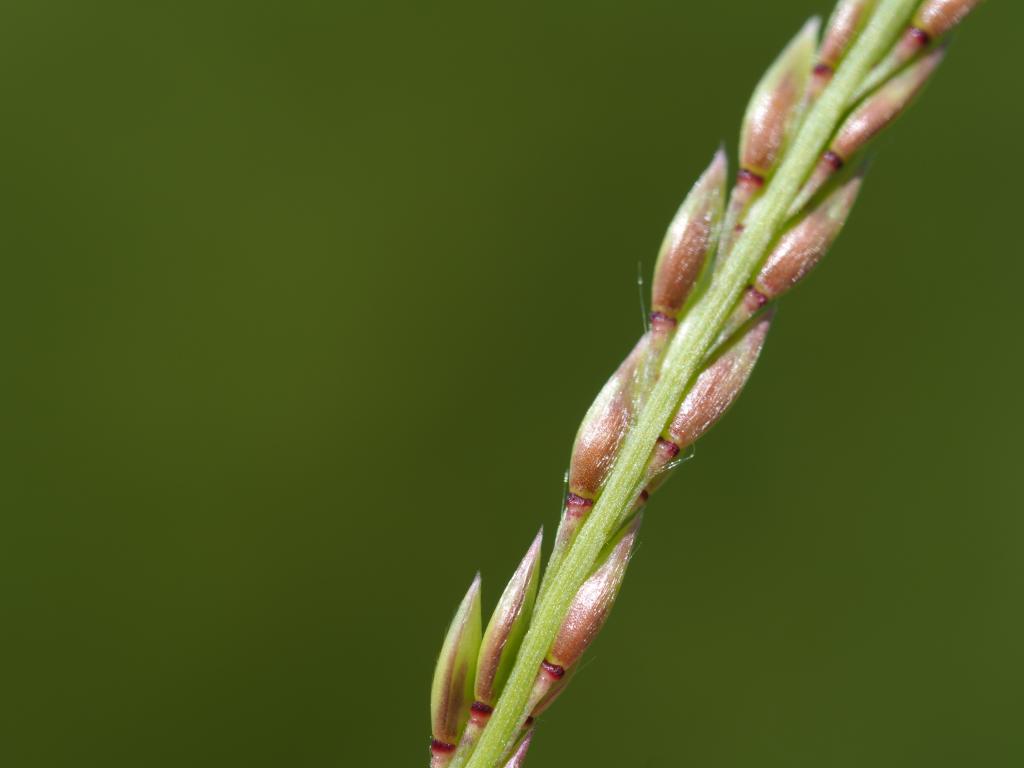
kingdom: Plantae
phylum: Tracheophyta
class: Liliopsida
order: Poales
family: Poaceae
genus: Eriochloa
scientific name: Eriochloa procera
